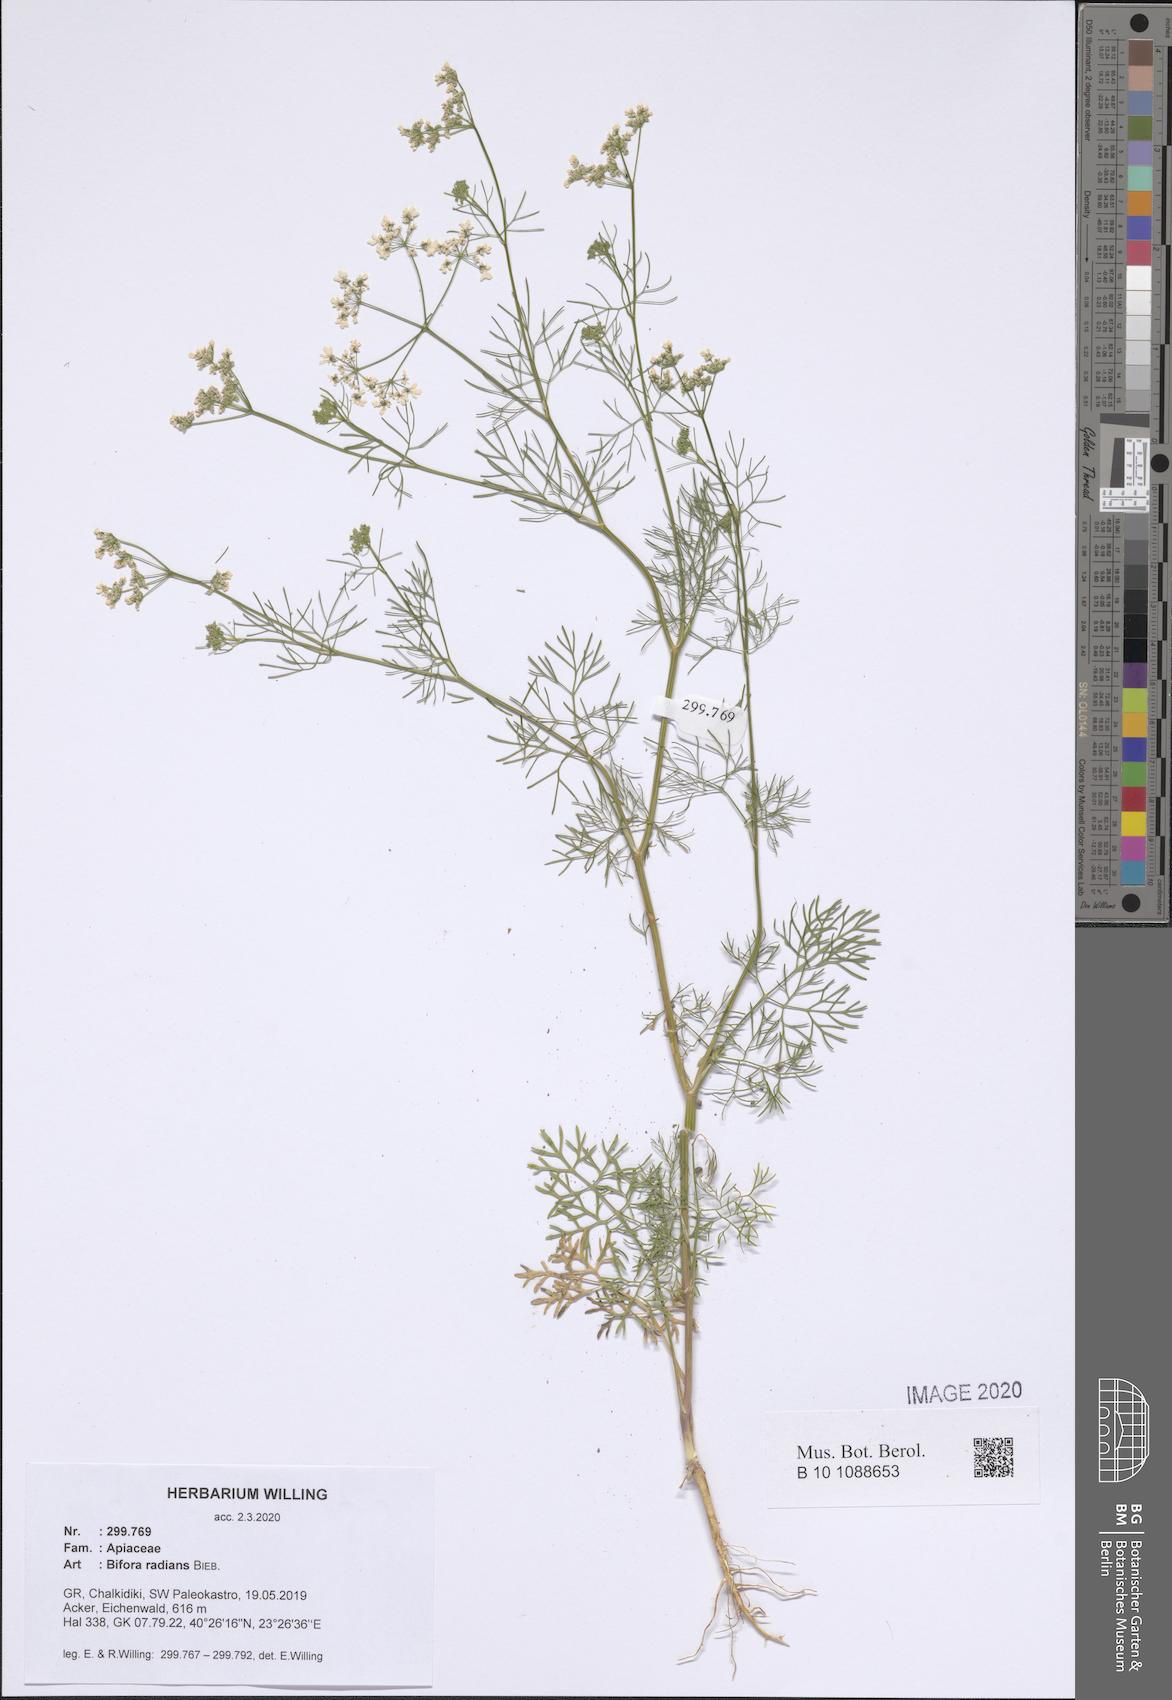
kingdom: Plantae
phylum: Tracheophyta
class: Magnoliopsida
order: Apiales
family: Apiaceae
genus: Bifora
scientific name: Bifora radians
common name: Wild bishop
